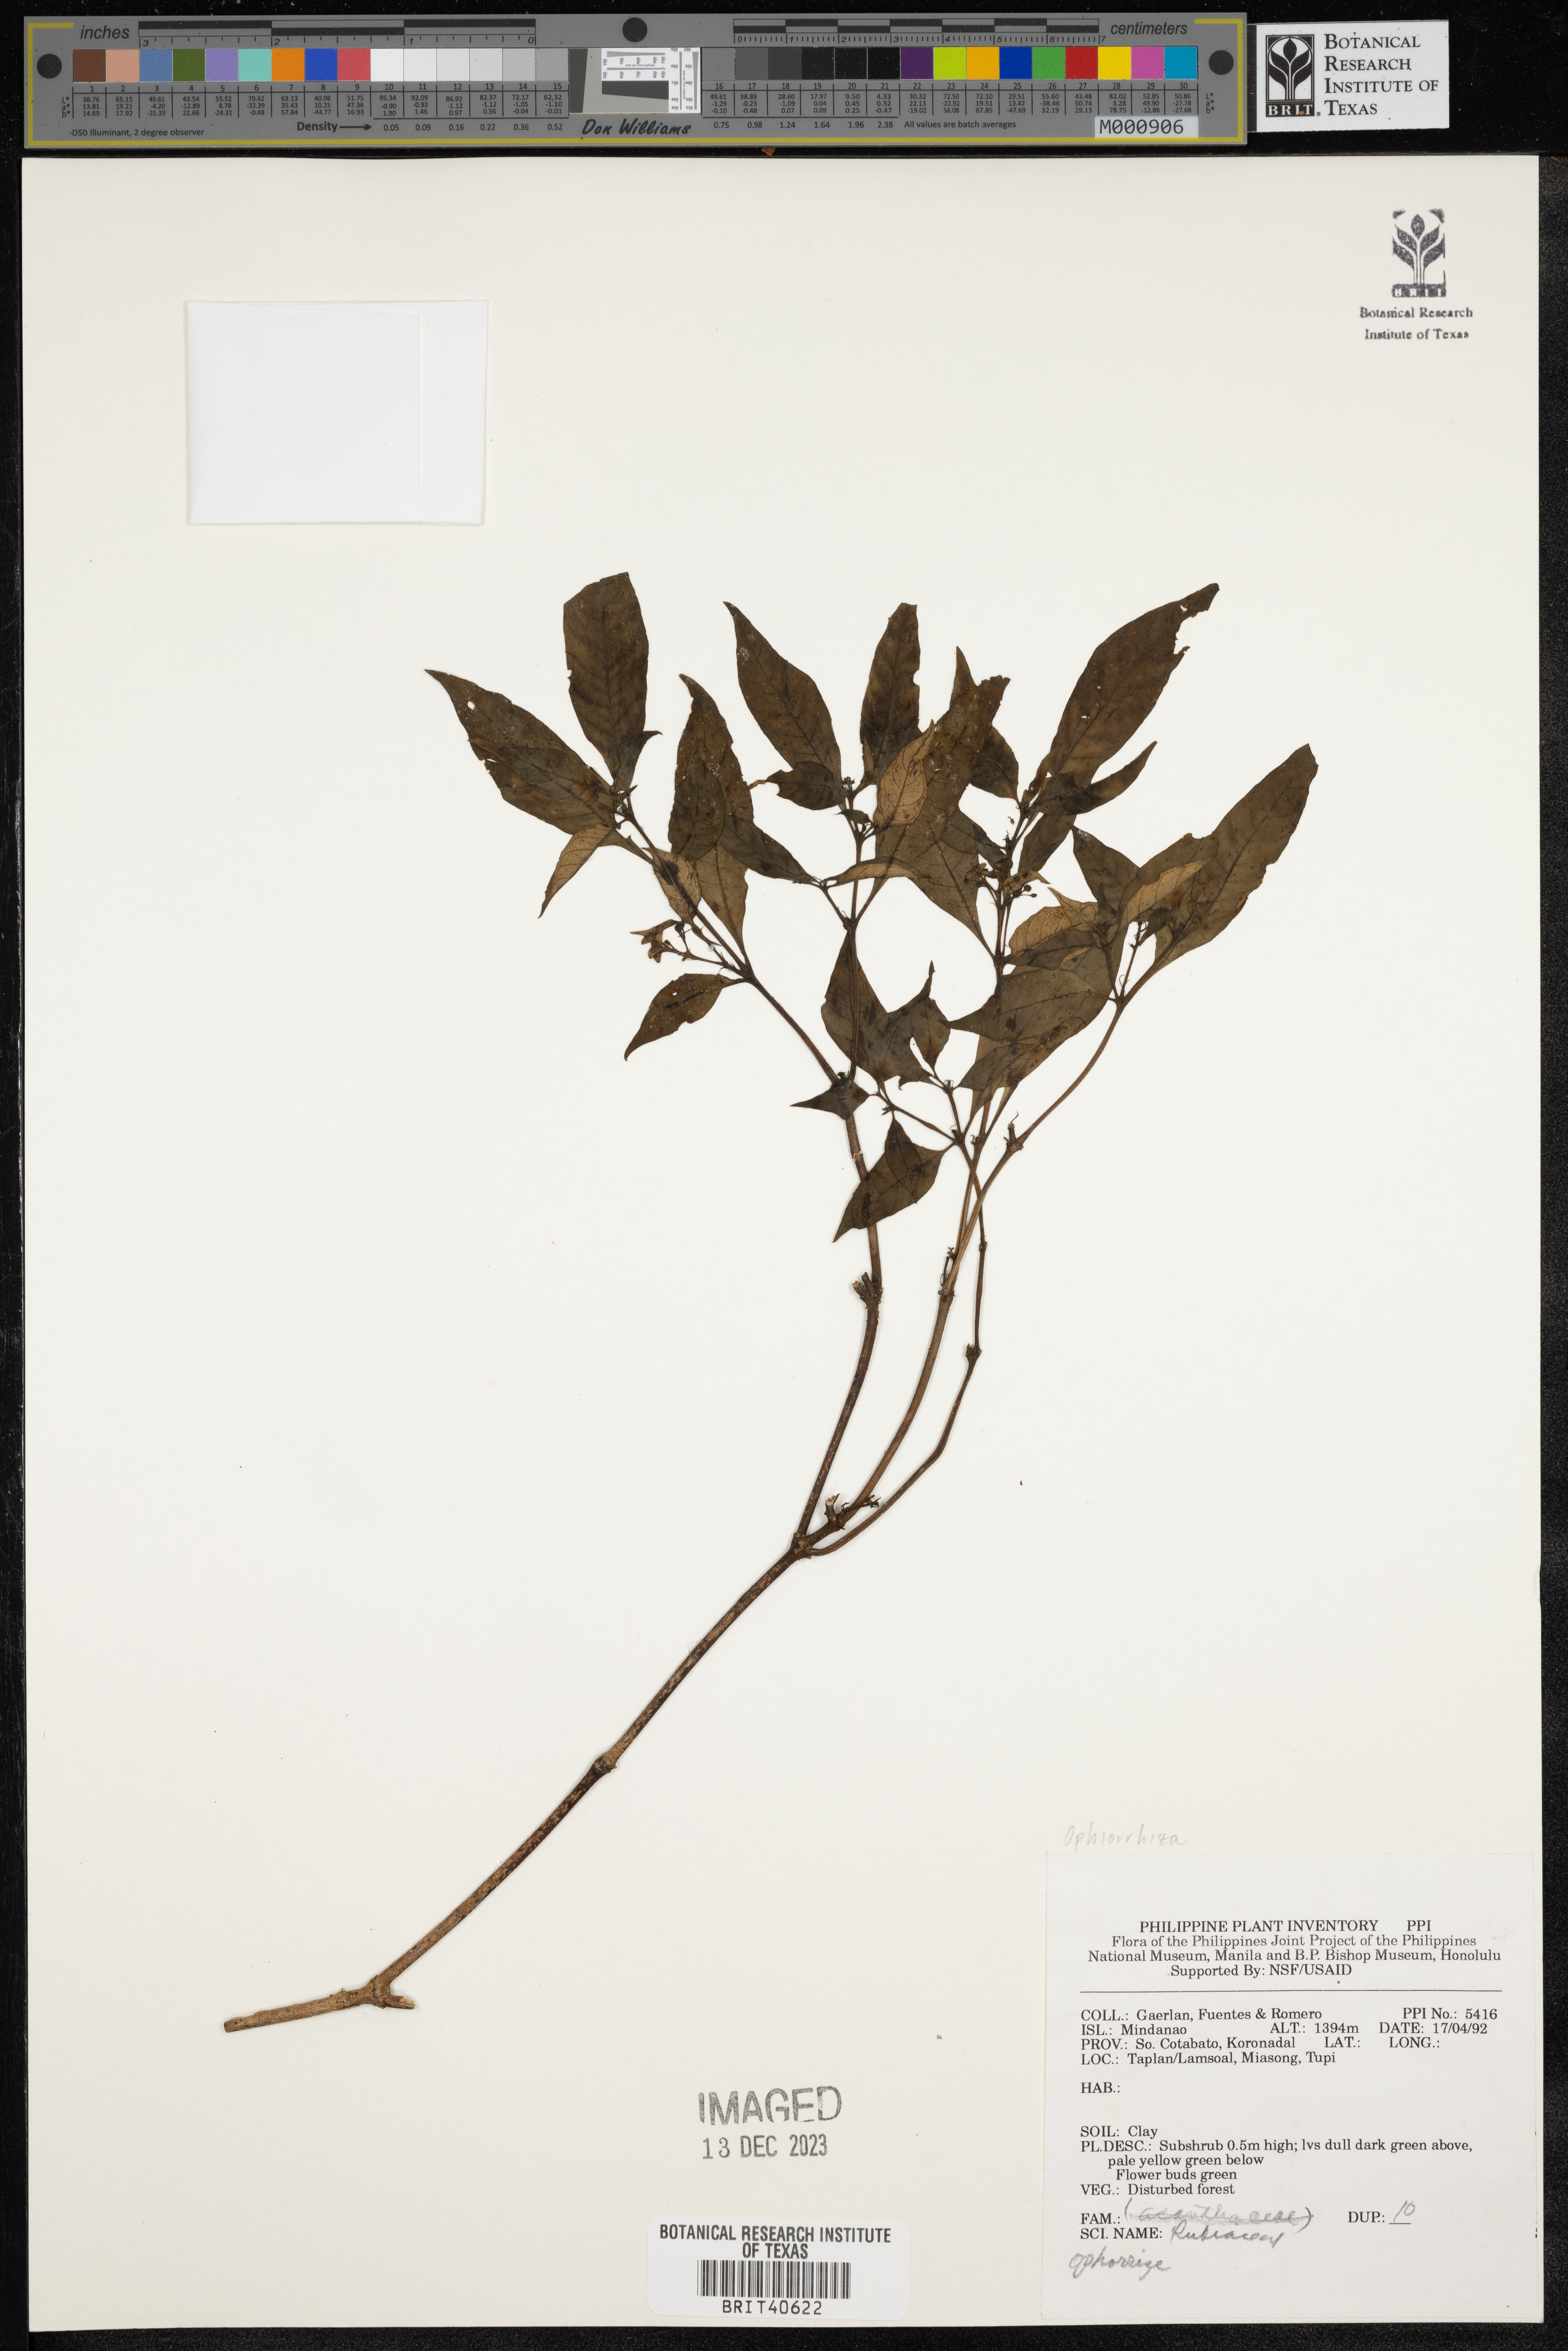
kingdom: Plantae
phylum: Tracheophyta
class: Magnoliopsida
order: Gentianales
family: Rubiaceae
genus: Ophiorrhiza
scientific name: Ophiorrhiza
